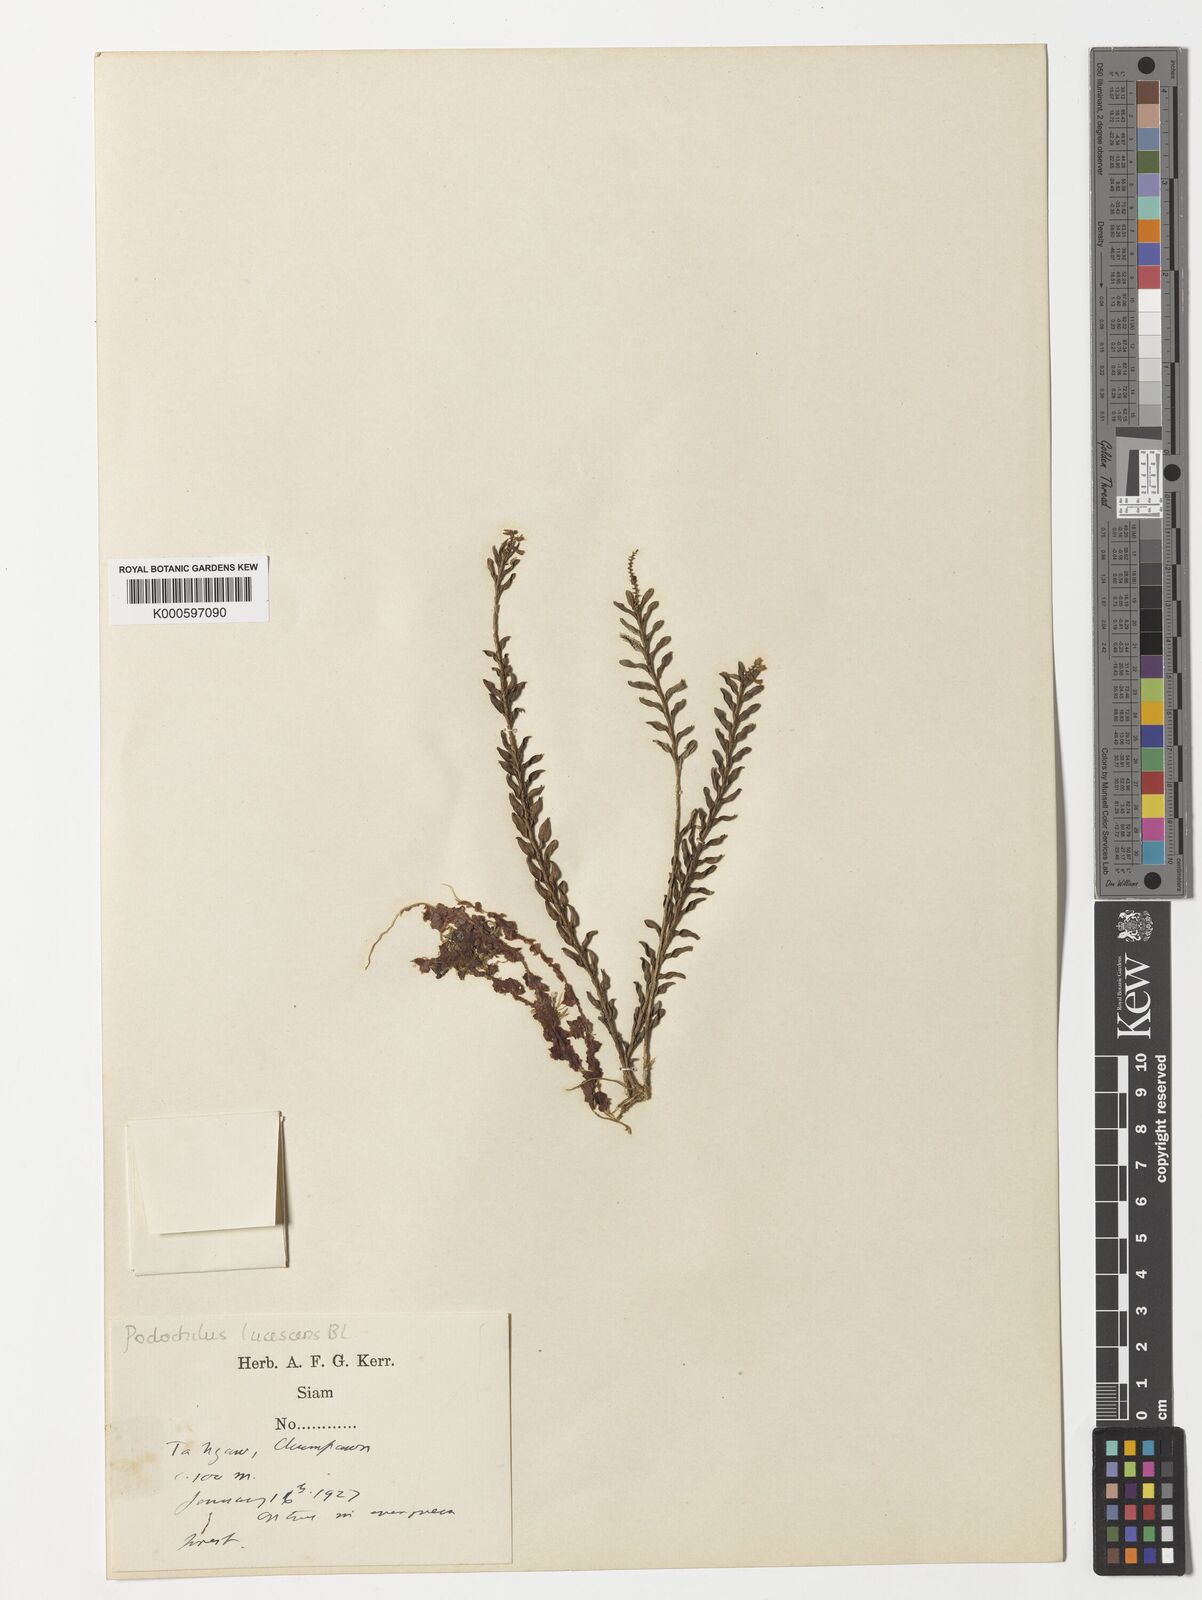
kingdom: Plantae
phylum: Tracheophyta
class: Liliopsida
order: Asparagales
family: Orchidaceae
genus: Podochilus
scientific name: Podochilus lucescens
